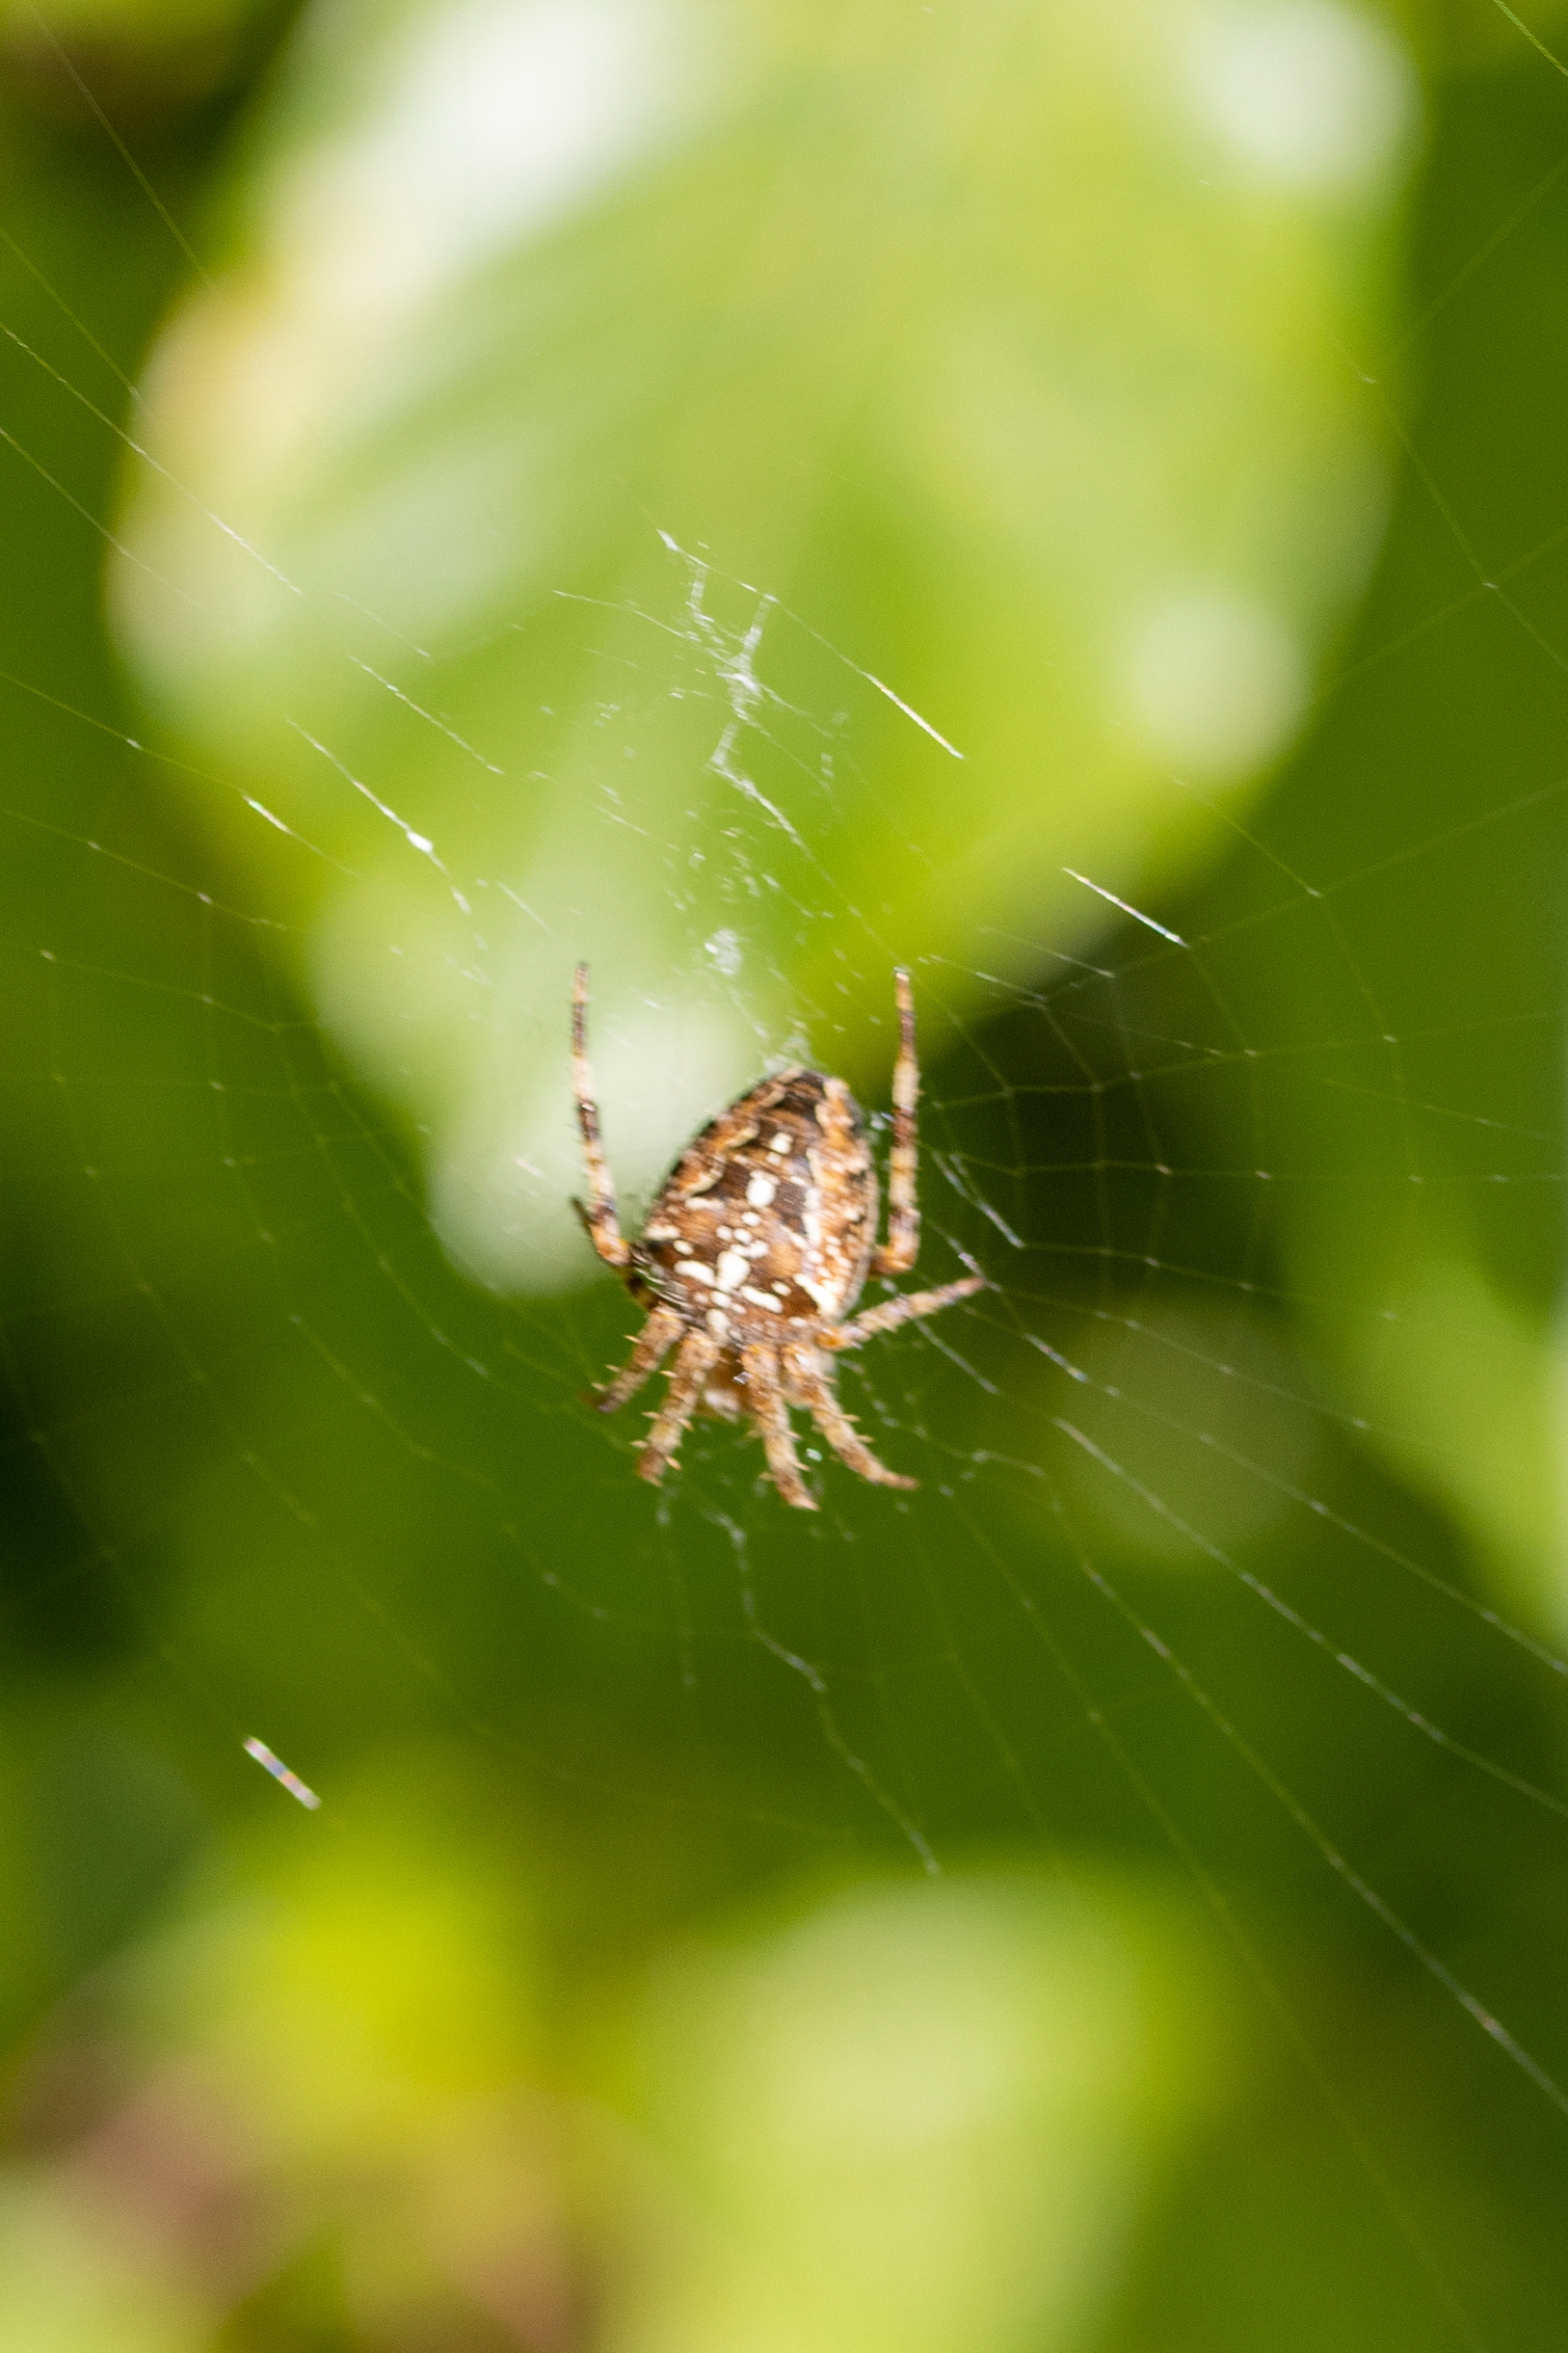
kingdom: Animalia
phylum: Arthropoda
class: Arachnida
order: Araneae
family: Araneidae
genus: Araneus
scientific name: Araneus diadematus
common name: Korsedderkop
